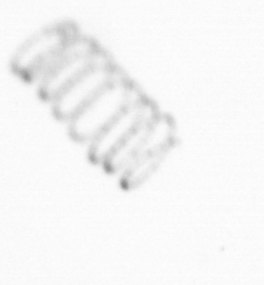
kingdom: Chromista
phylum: Ochrophyta
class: Bacillariophyceae
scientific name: Bacillariophyceae
